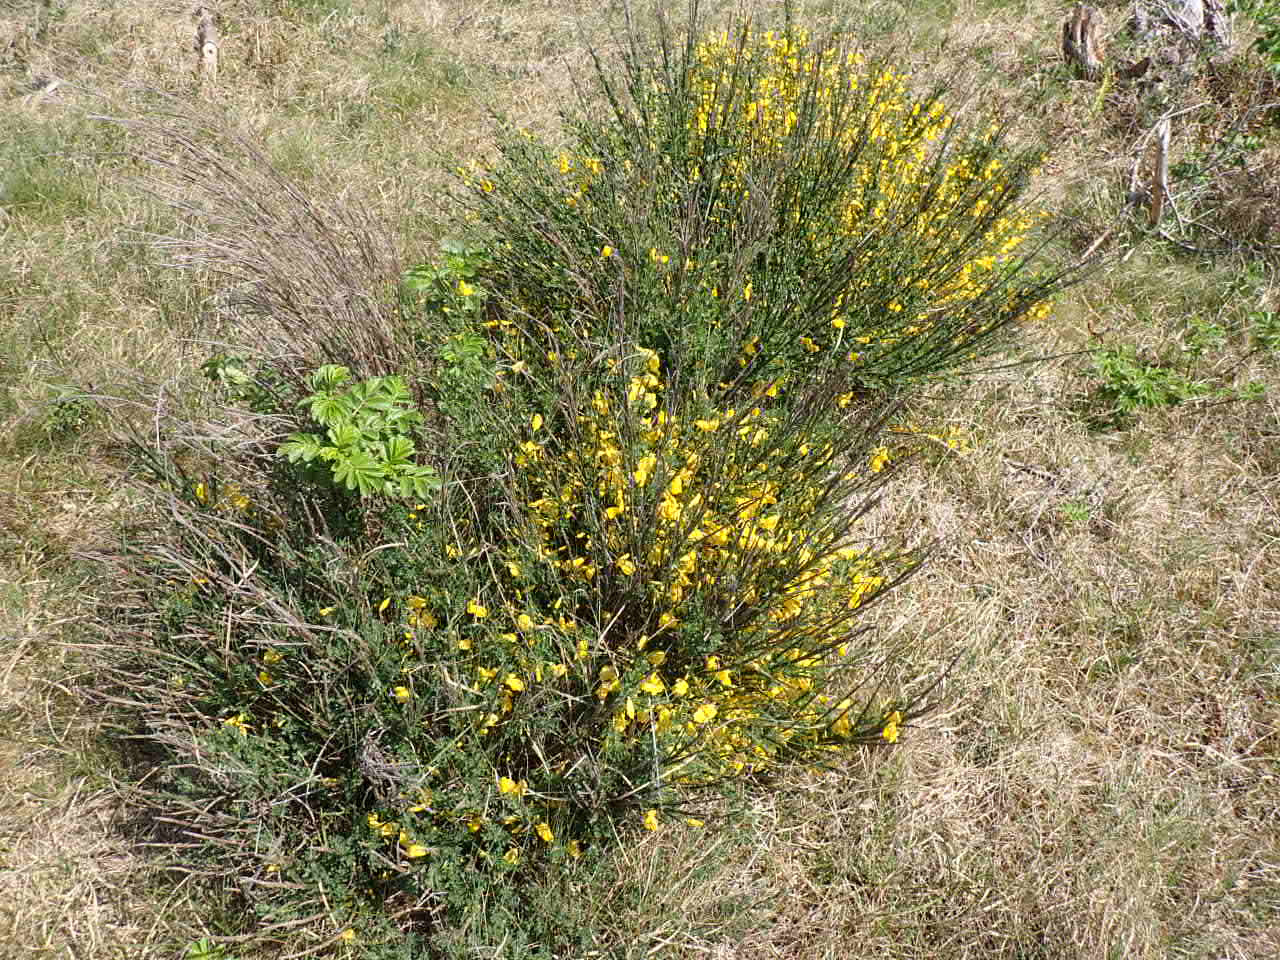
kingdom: Plantae
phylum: Tracheophyta
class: Magnoliopsida
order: Fabales
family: Fabaceae
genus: Cytisus
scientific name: Cytisus scoparius
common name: Almindelig gyvel
